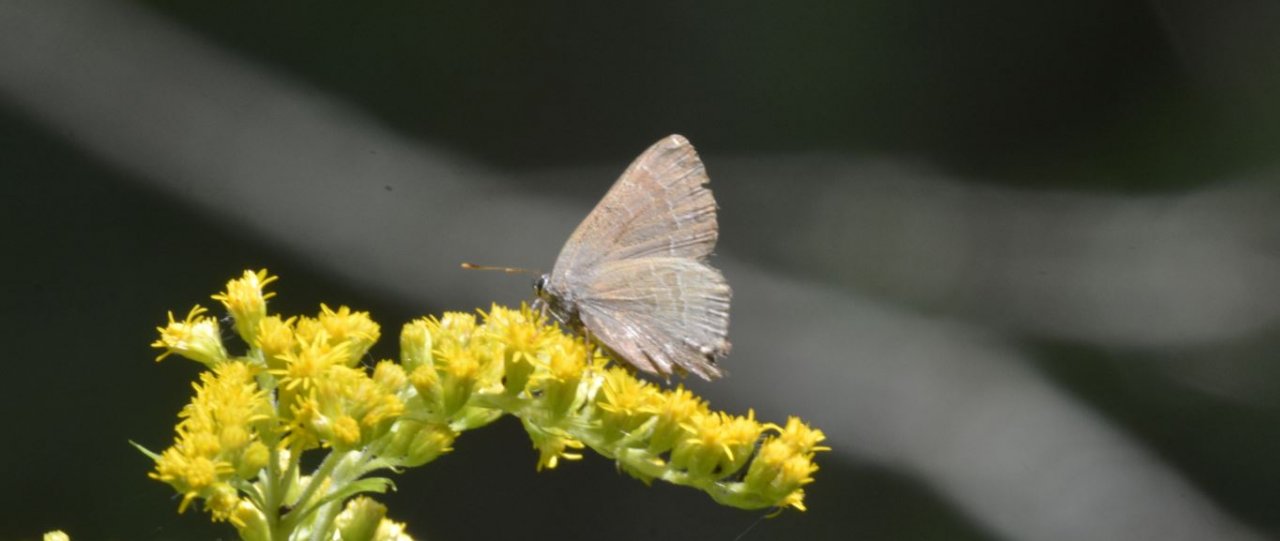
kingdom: Animalia
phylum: Arthropoda
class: Insecta
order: Lepidoptera
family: Lycaenidae
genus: Satyrium
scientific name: Satyrium
